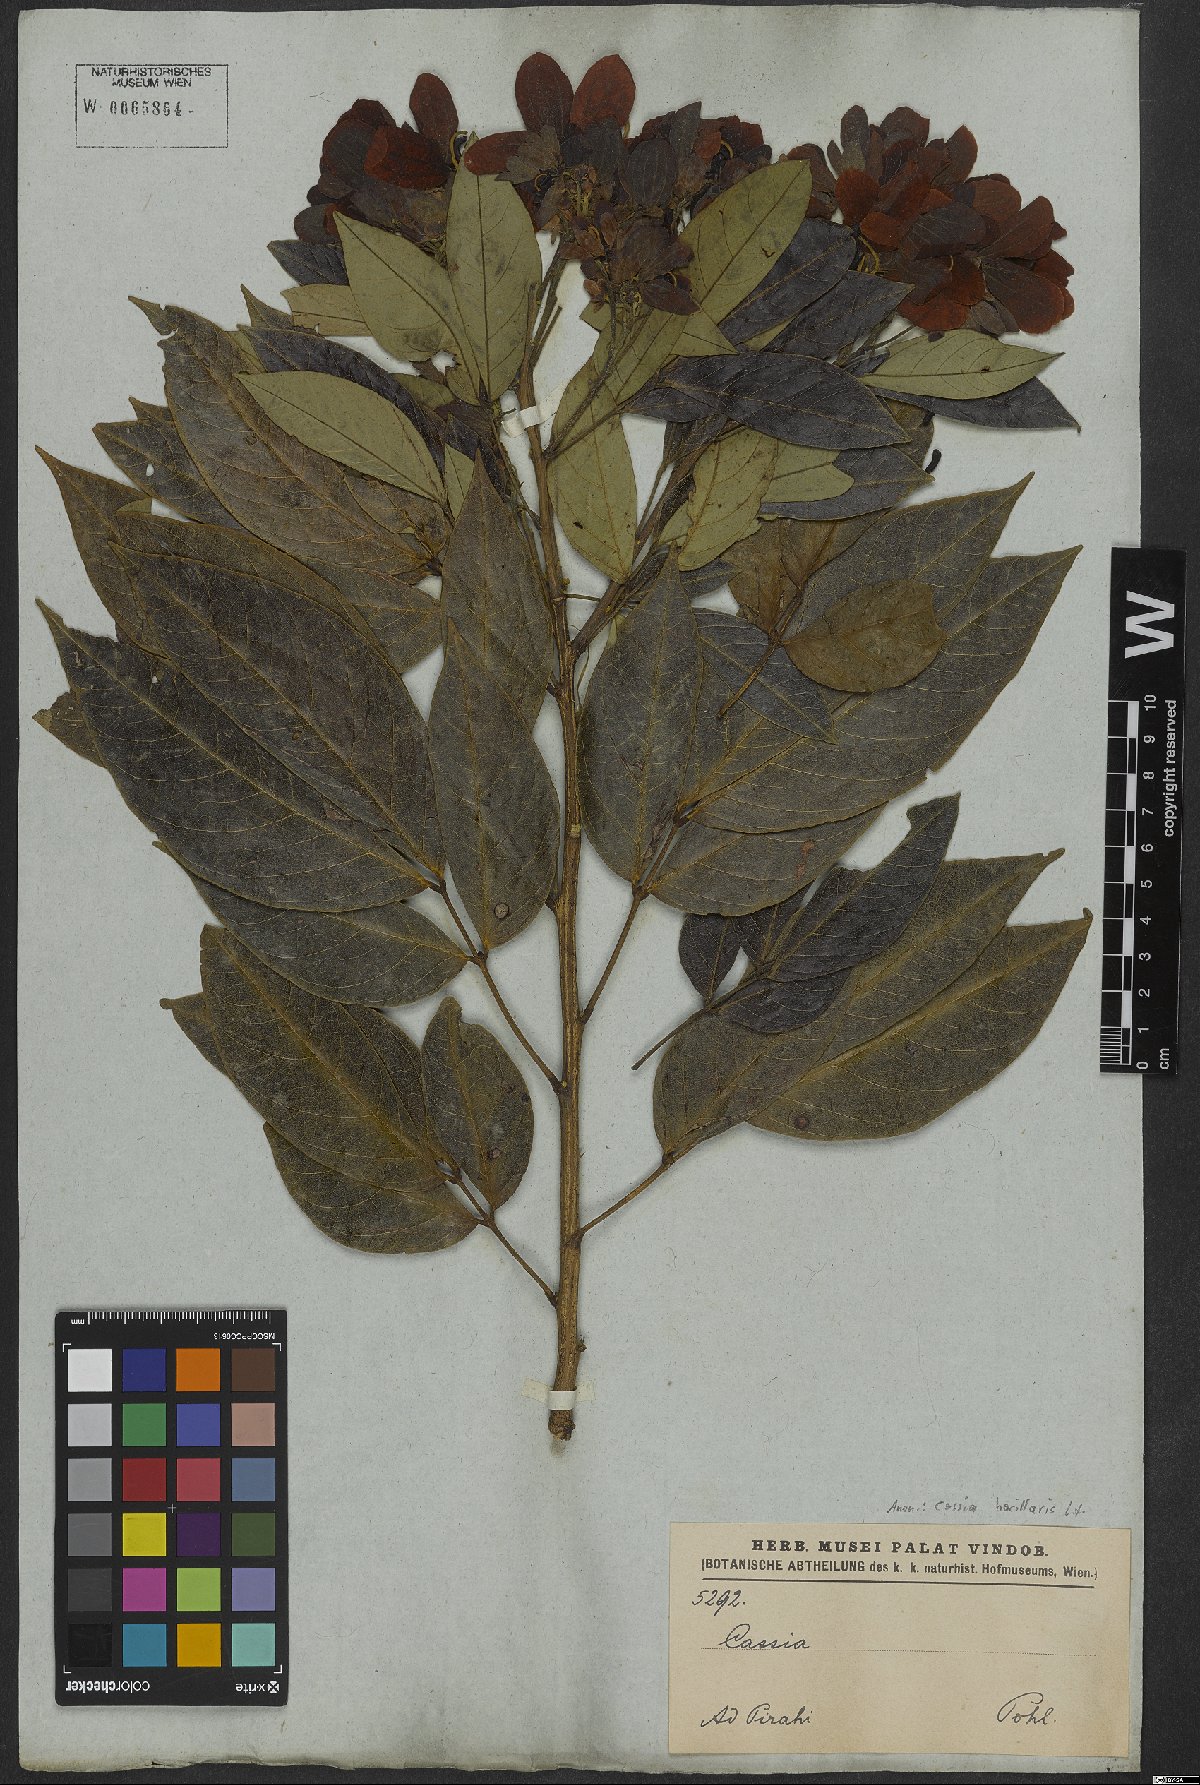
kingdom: Plantae
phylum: Tracheophyta
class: Magnoliopsida
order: Fabales
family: Fabaceae
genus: Senna
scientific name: Senna bacillaris
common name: West indian showertree
